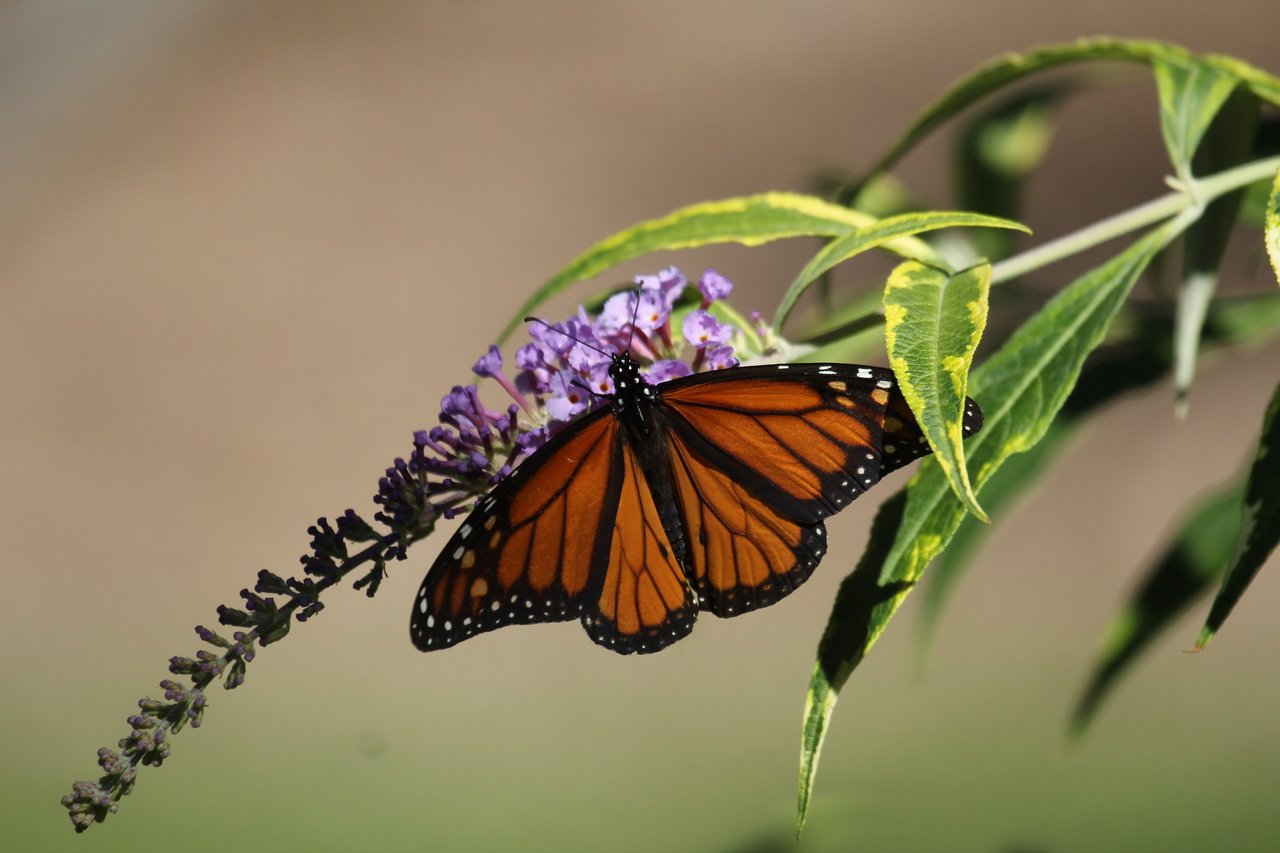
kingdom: Animalia
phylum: Arthropoda
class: Insecta
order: Lepidoptera
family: Nymphalidae
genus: Danaus
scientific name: Danaus plexippus
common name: Monarch
